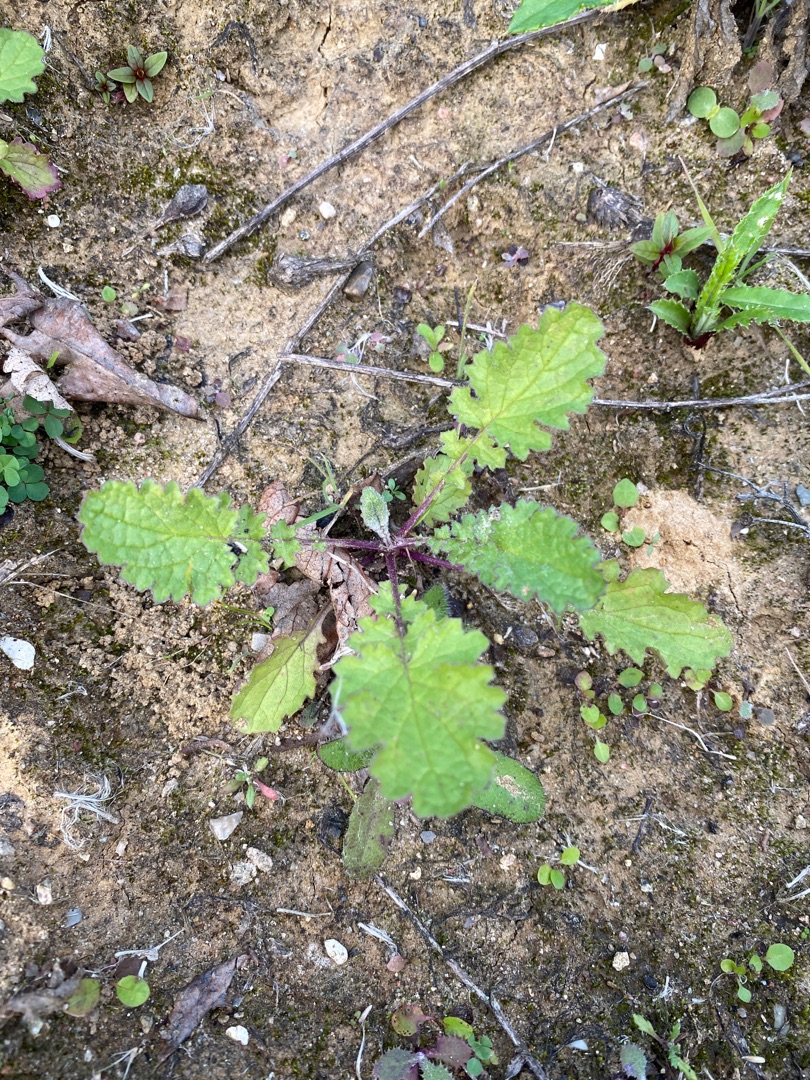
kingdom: Plantae
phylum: Tracheophyta
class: Magnoliopsida
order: Asterales
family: Asteraceae
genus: Jacobaea
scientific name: Jacobaea vulgaris
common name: Eng-brandbæger
